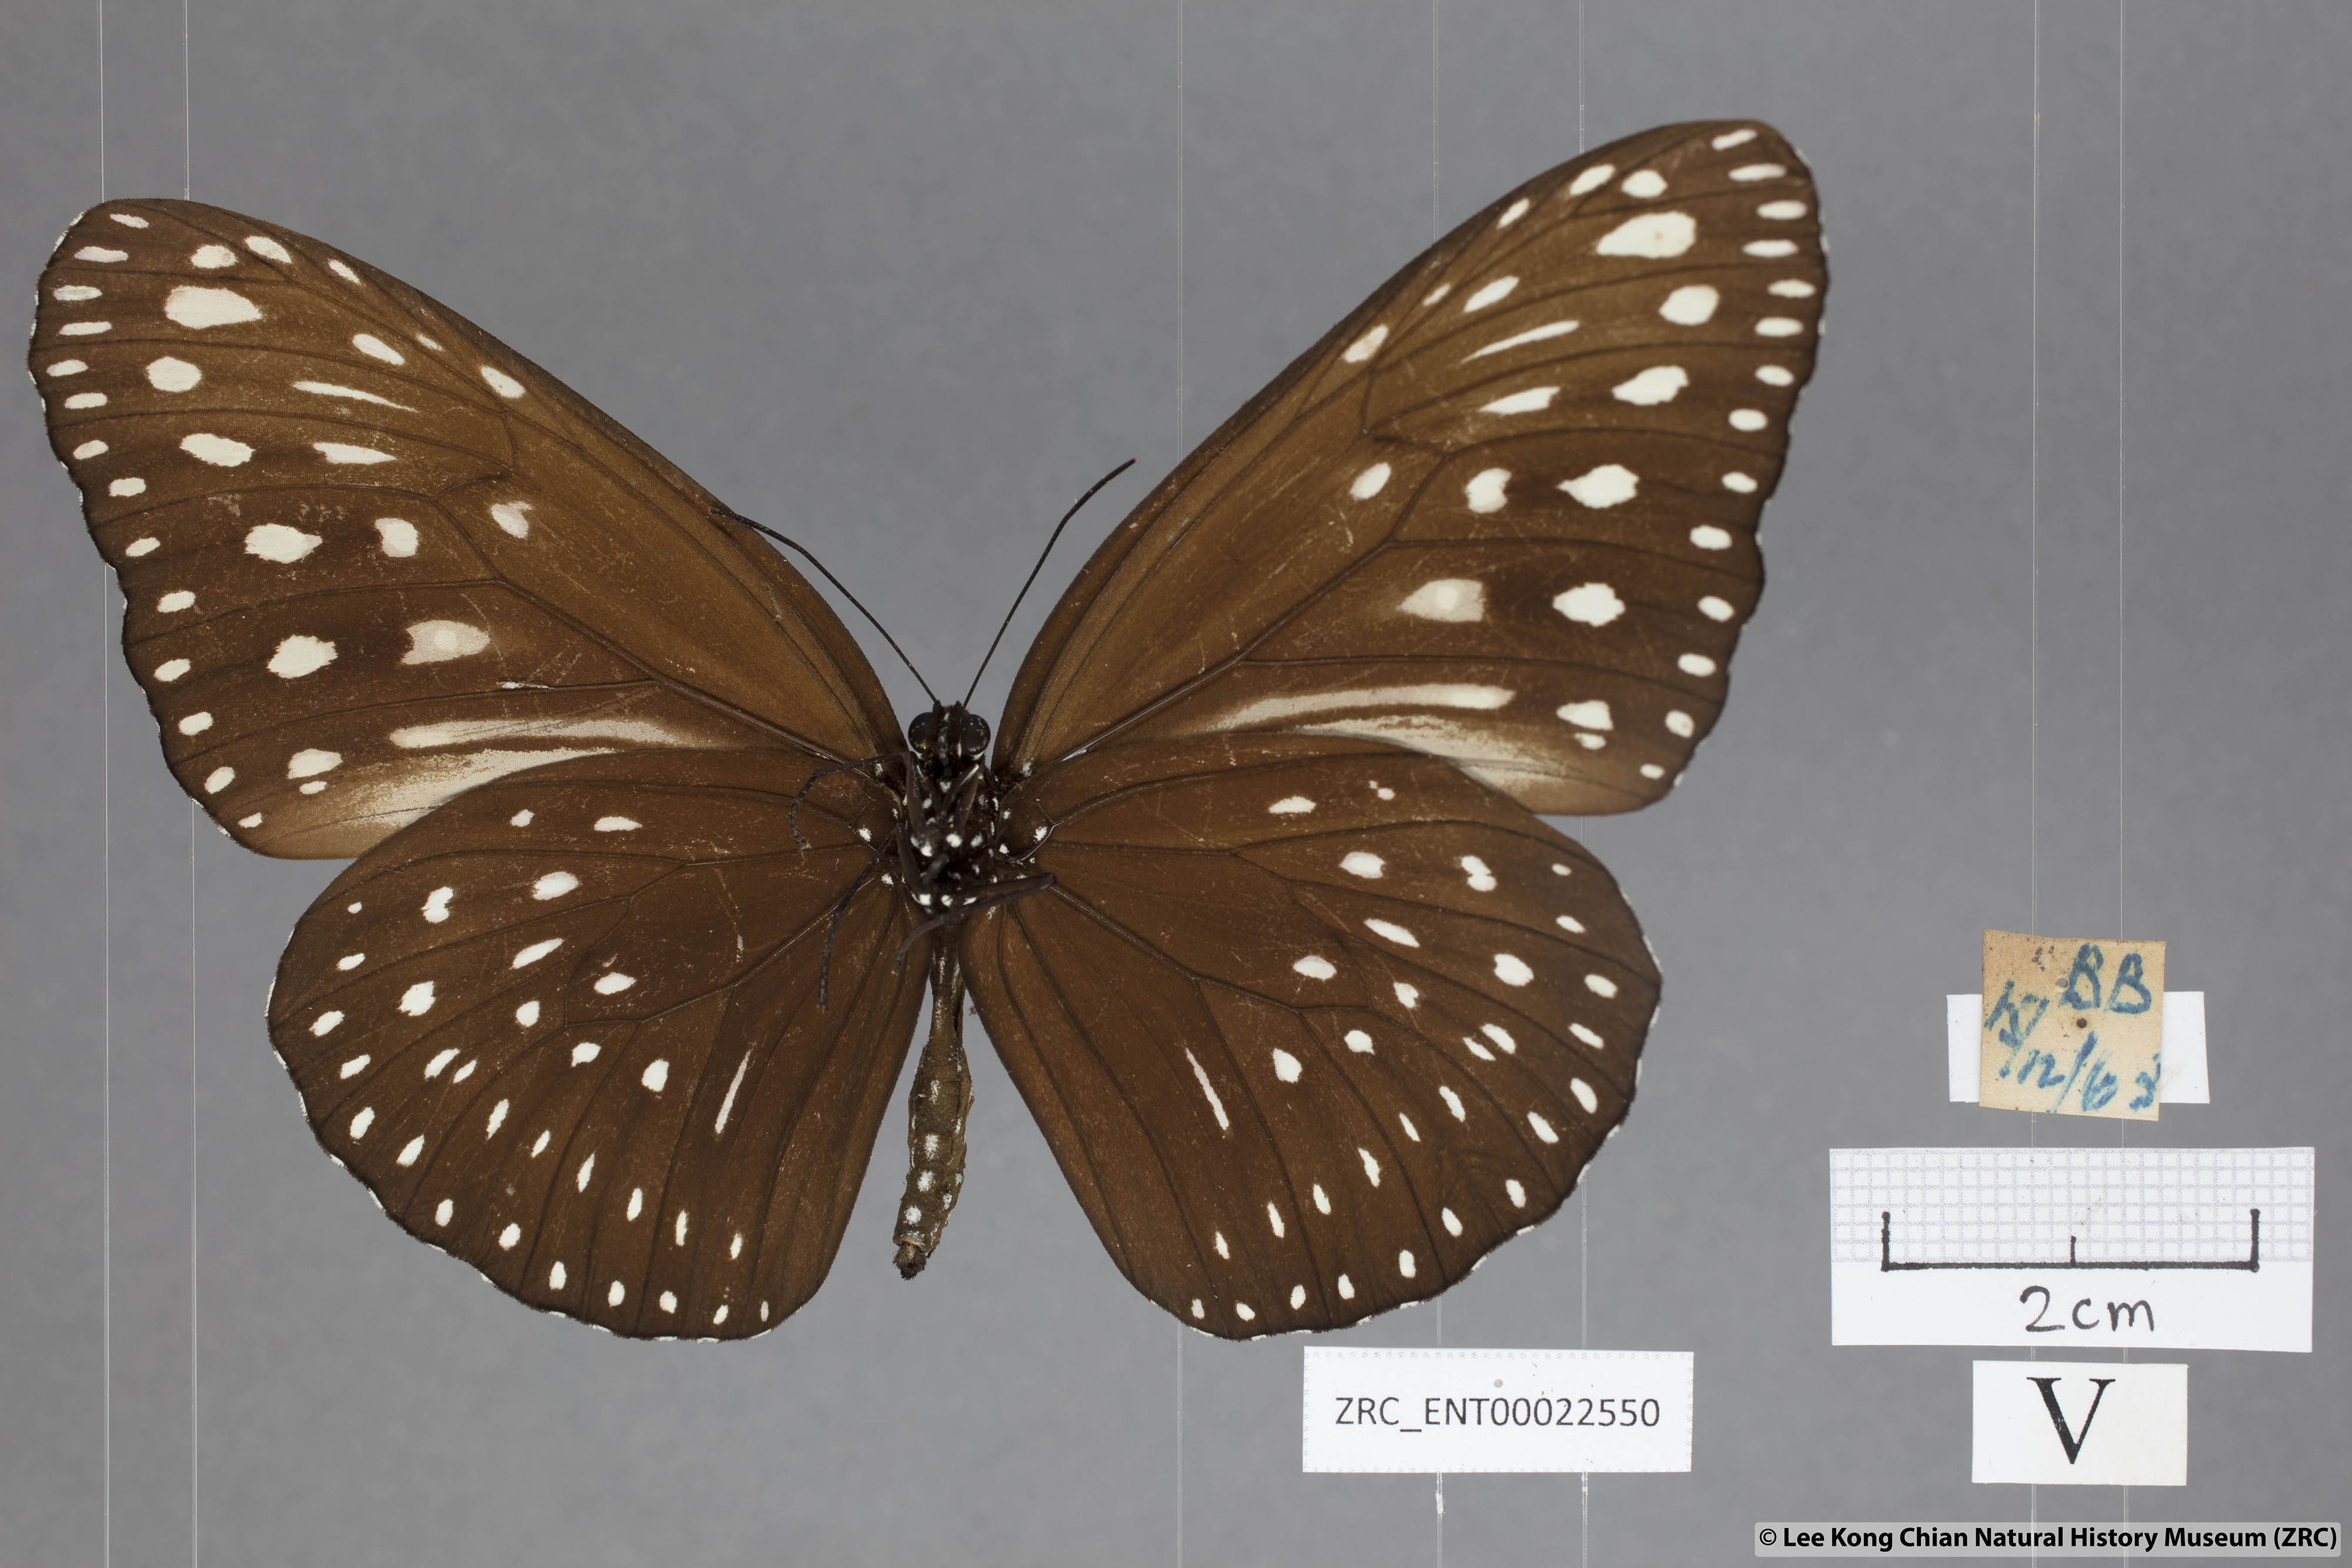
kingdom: Animalia
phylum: Arthropoda
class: Insecta
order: Lepidoptera
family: Nymphalidae
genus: Euploea
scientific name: Euploea camaralzeman
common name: Malayan crow butterfly
